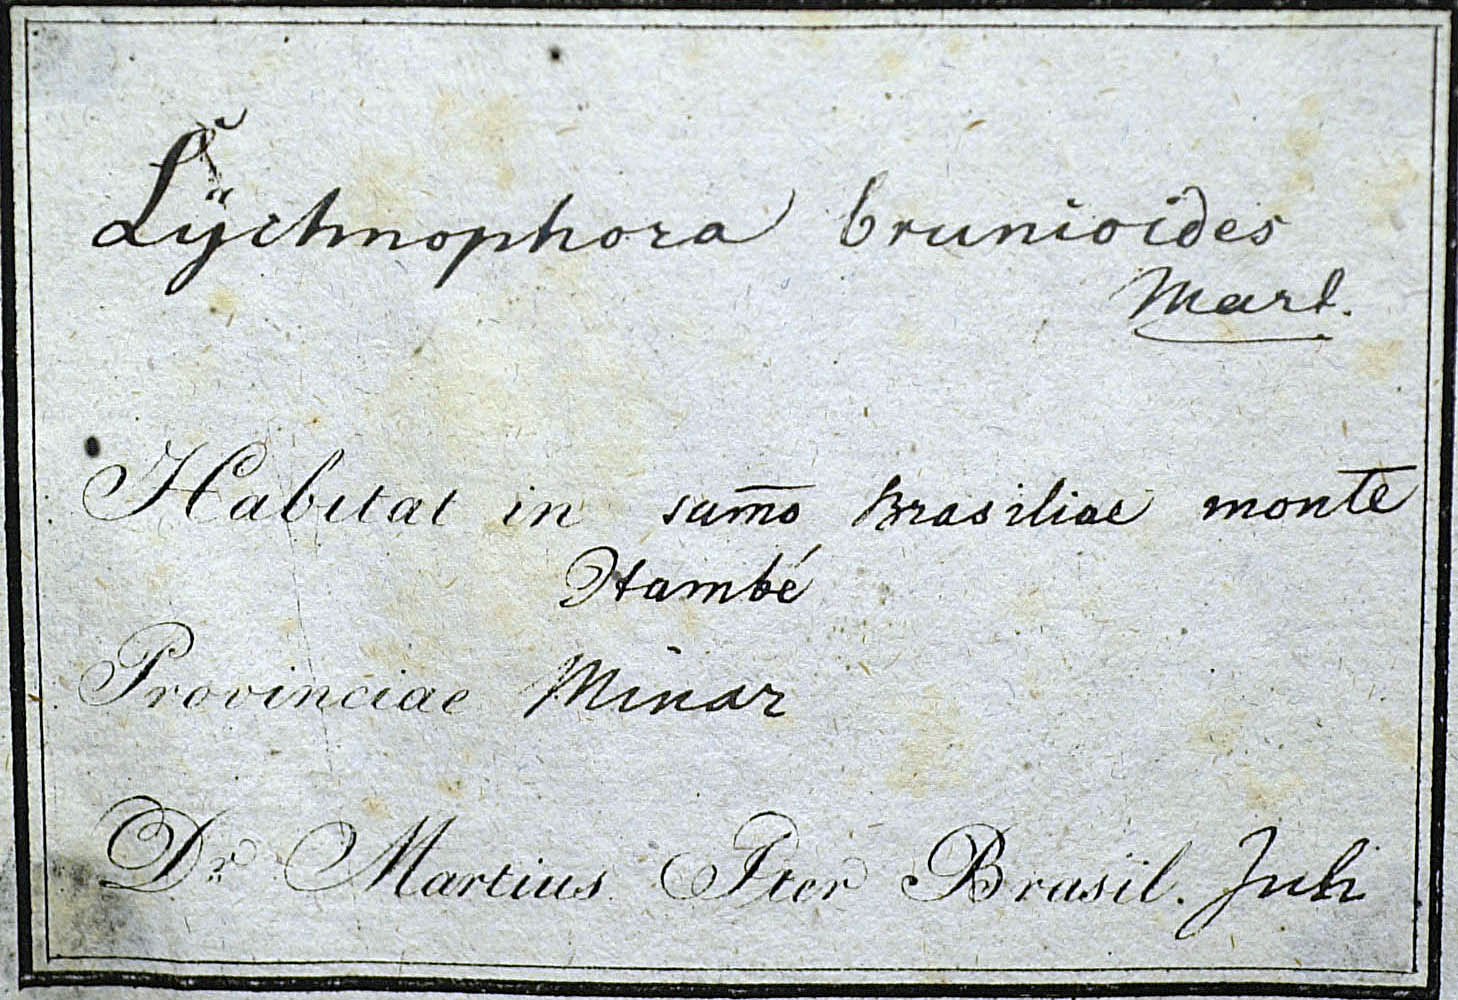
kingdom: Plantae
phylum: Tracheophyta
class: Magnoliopsida
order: Asterales
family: Asteraceae
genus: Lychnophora
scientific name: Lychnophora brunioides
